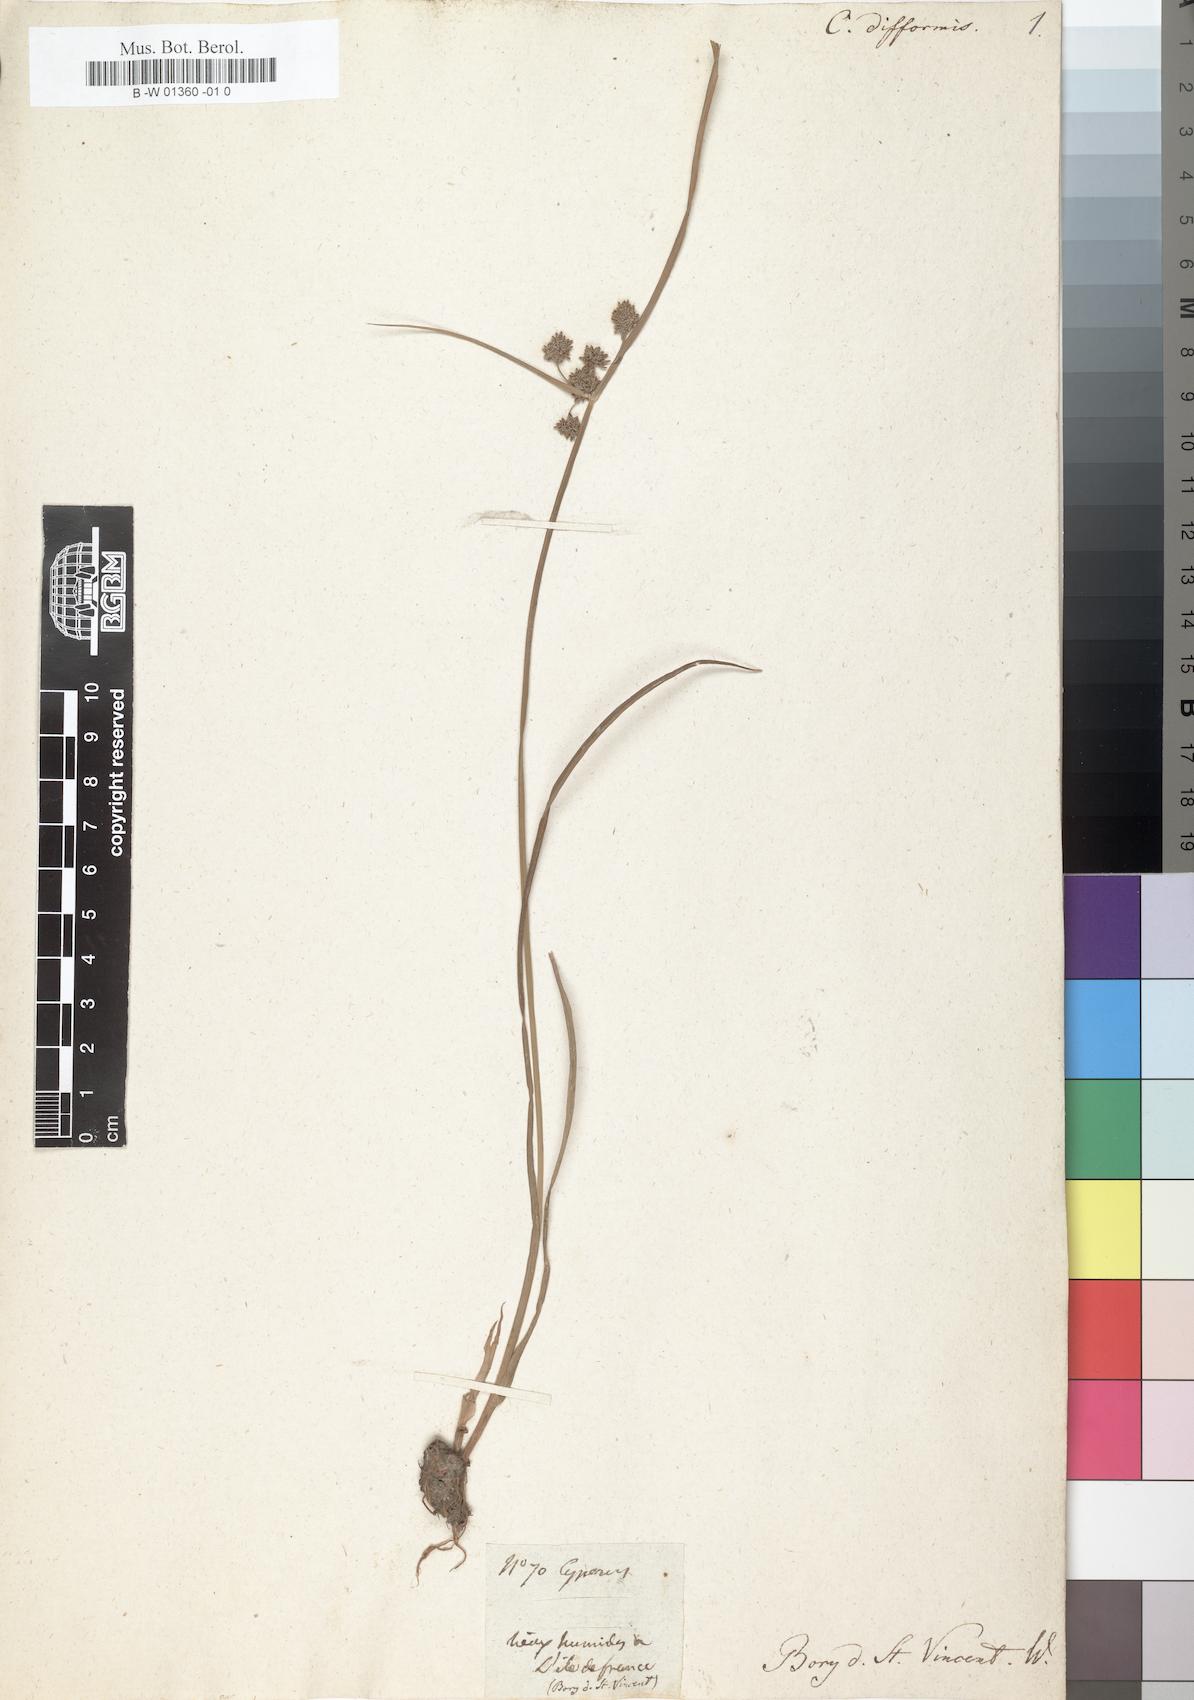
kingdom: Plantae
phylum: Tracheophyta
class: Liliopsida
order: Poales
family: Cyperaceae
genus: Cyperus
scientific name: Cyperus difformis
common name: Variable flatsedge
